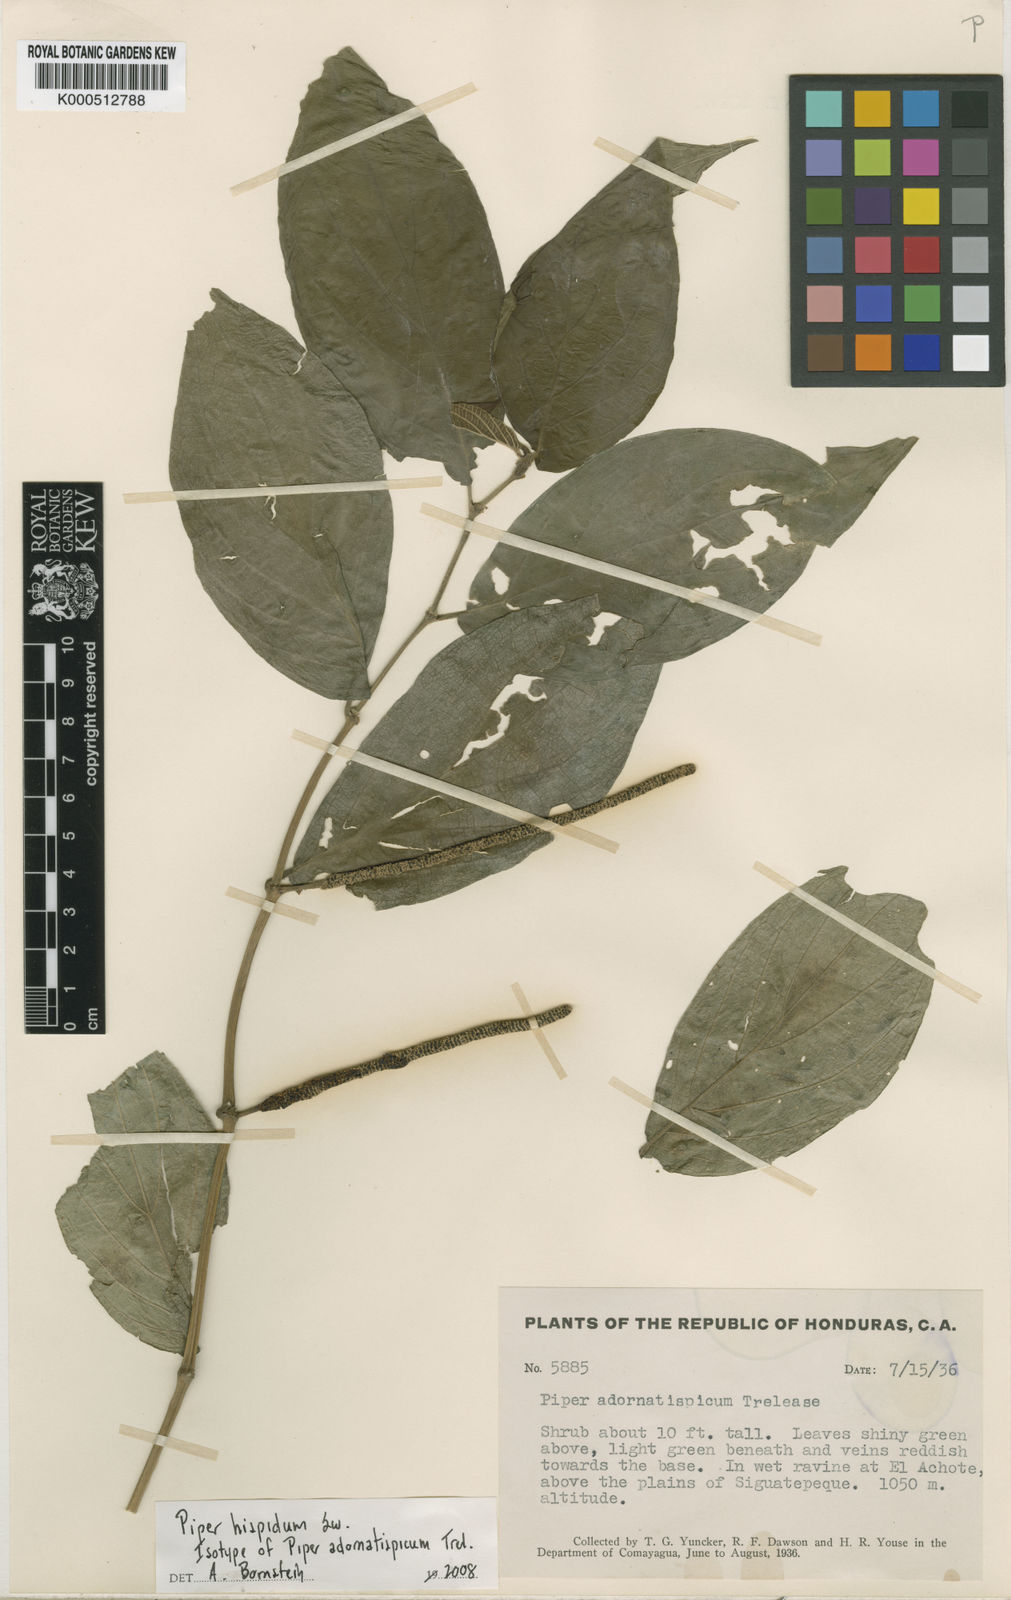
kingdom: Plantae
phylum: Tracheophyta
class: Magnoliopsida
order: Piperales
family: Piperaceae
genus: Piper
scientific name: Piper hispidum
